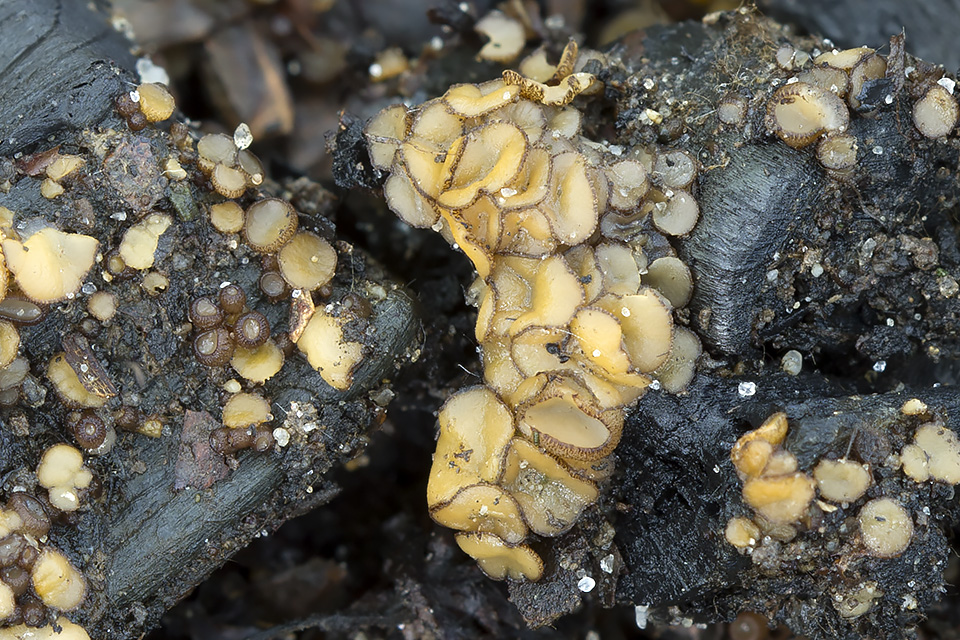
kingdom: Fungi
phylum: Ascomycota
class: Pezizomycetes
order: Pezizales
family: Pyronemataceae
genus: Anthracobia
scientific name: Anthracobia maurilabra
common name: brunorange ildbæger
